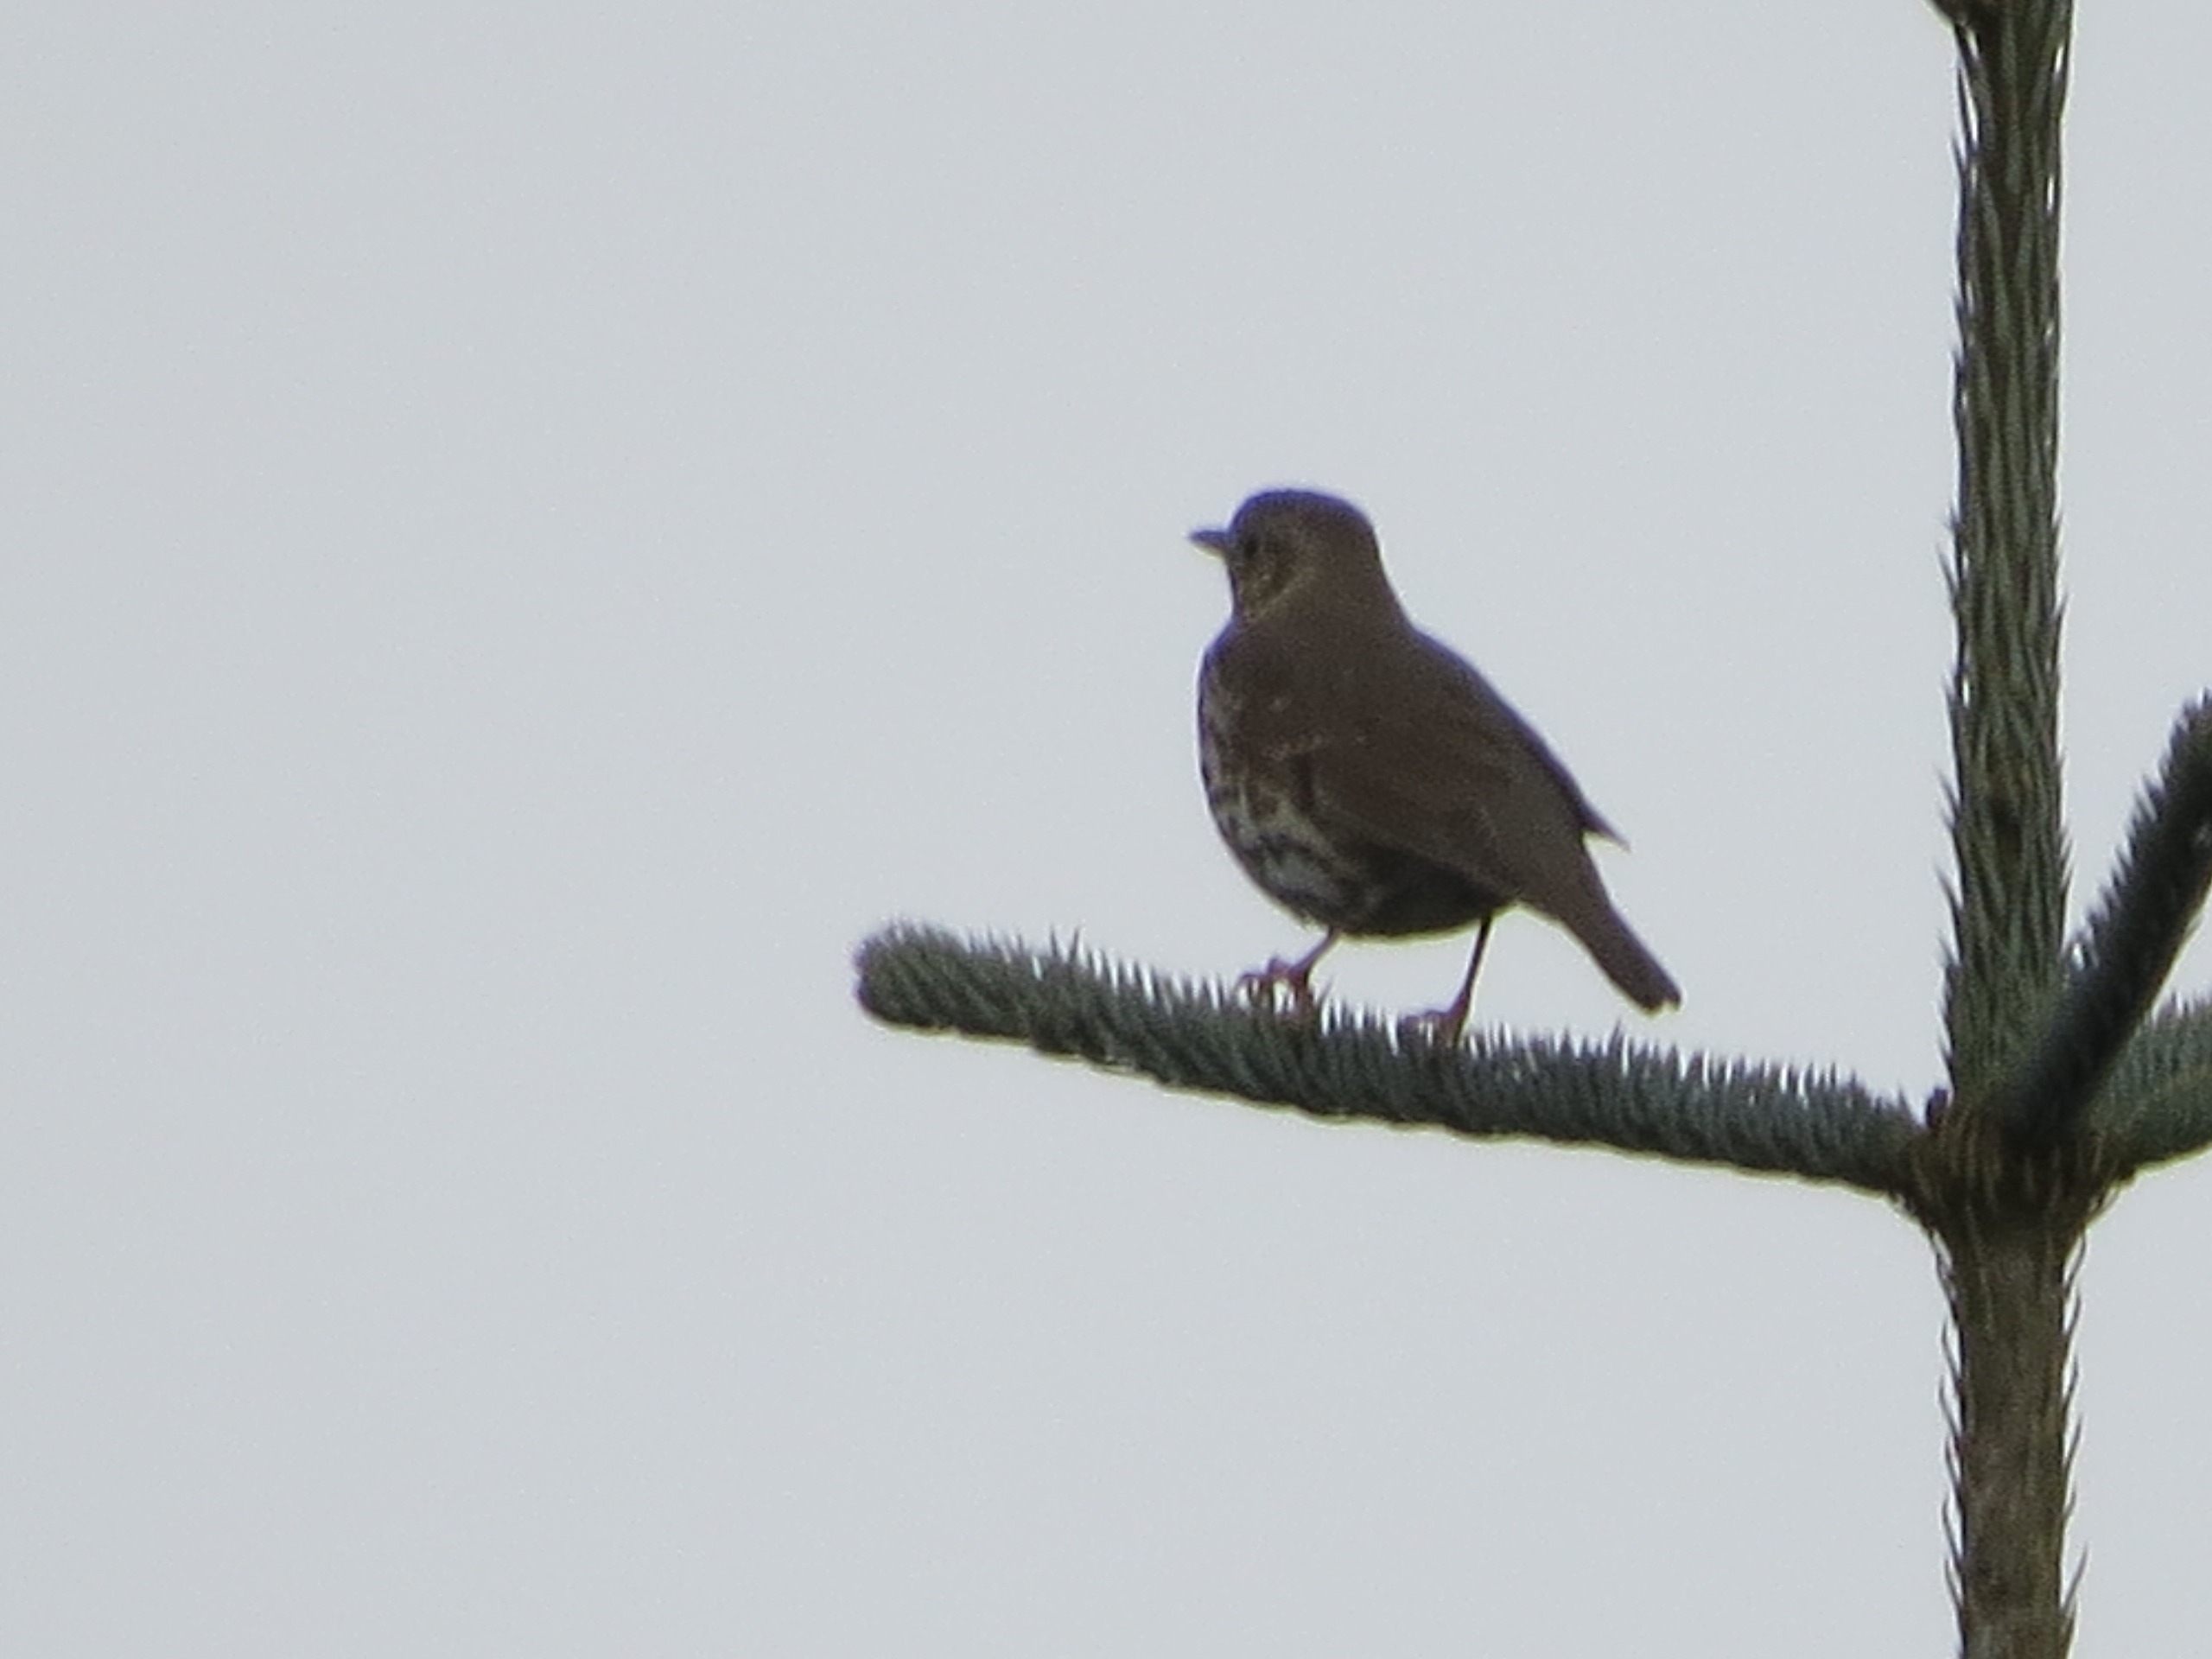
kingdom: Animalia
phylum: Chordata
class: Aves
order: Passeriformes
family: Turdidae
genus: Turdus
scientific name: Turdus philomelos
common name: Sangdrossel
